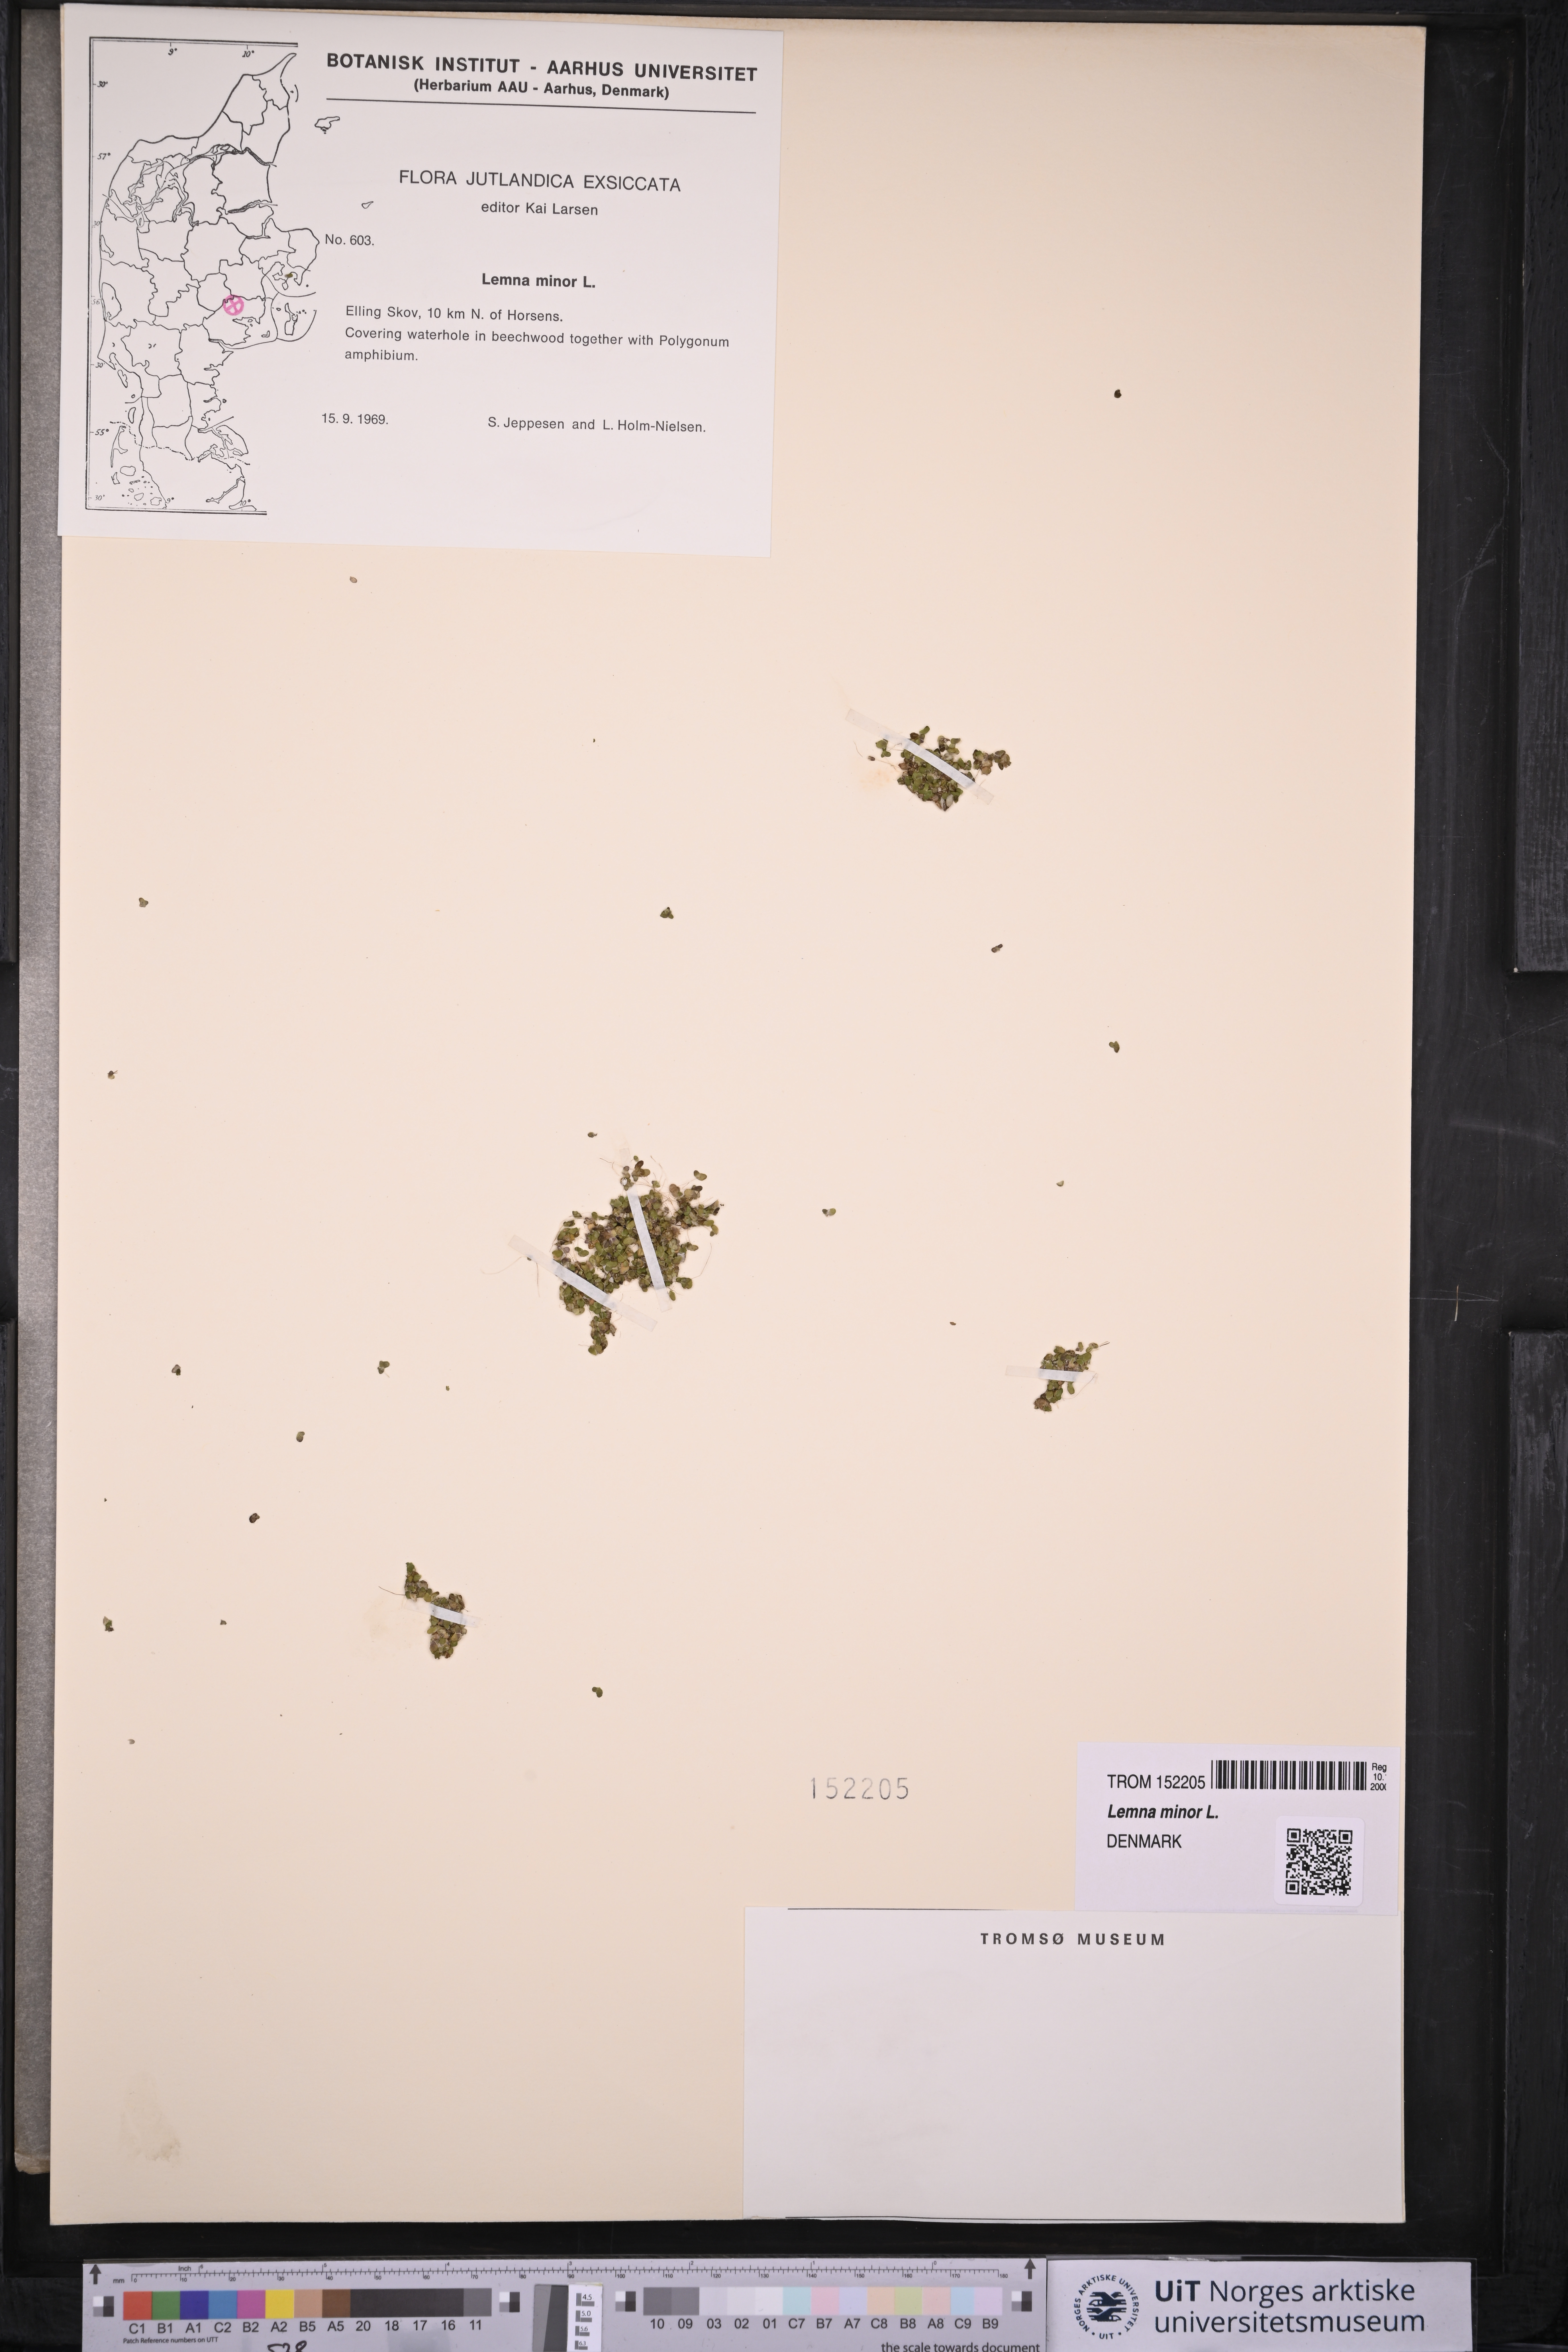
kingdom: Plantae
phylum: Tracheophyta
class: Liliopsida
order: Alismatales
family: Araceae
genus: Lemna
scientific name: Lemna minor
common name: Common duckweed
